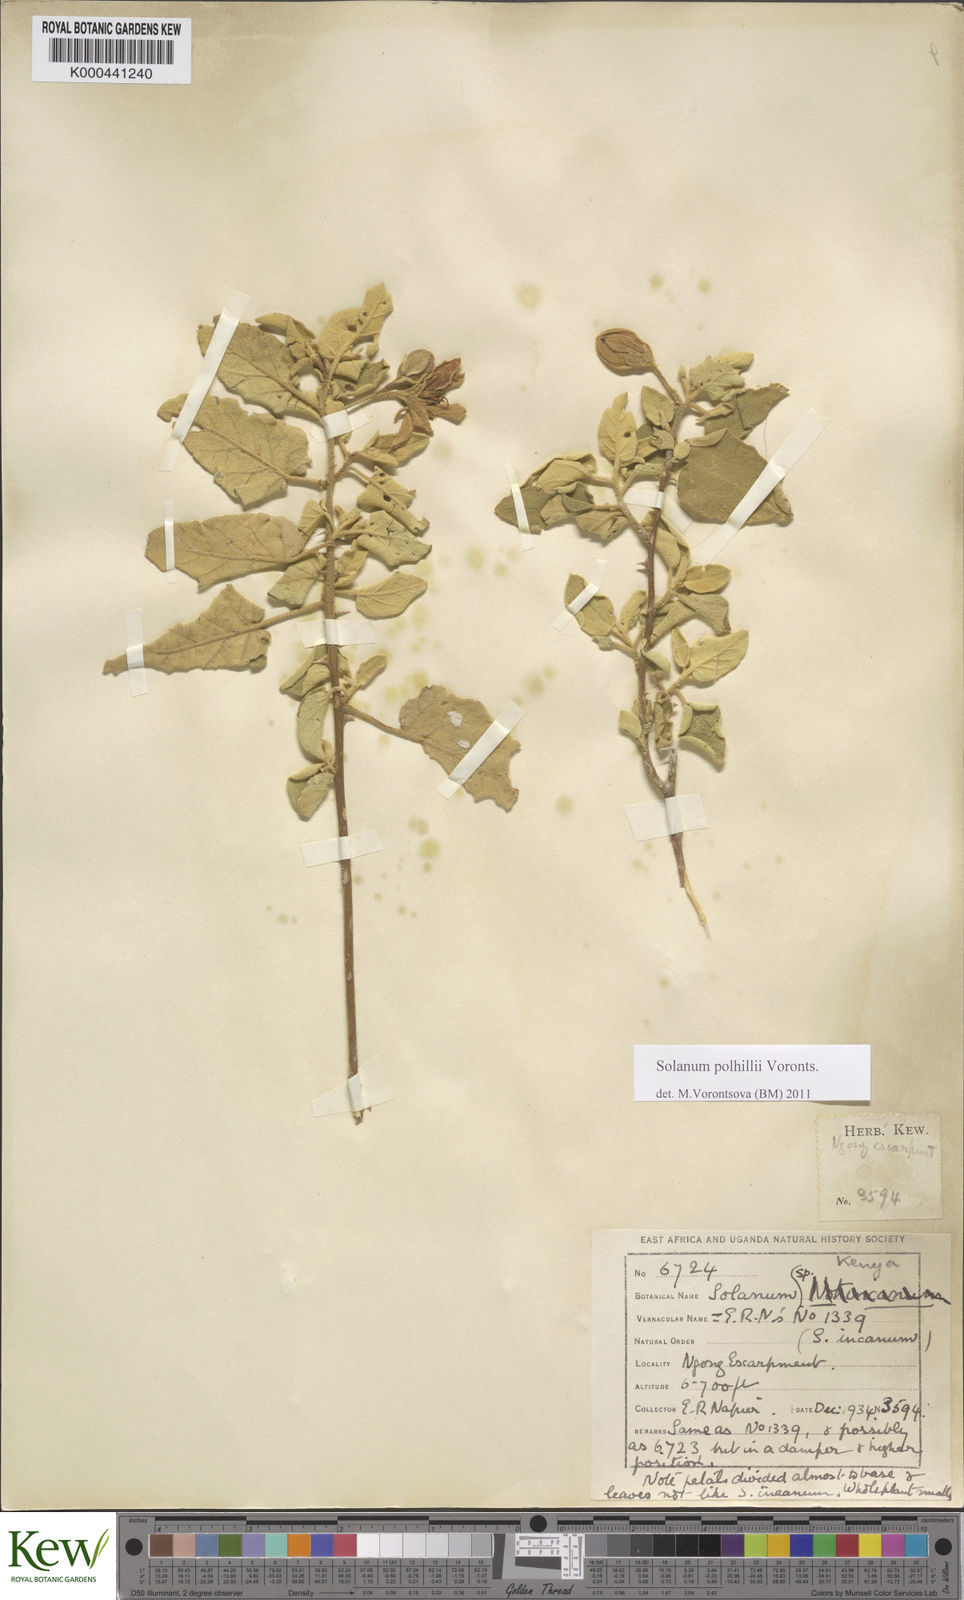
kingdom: Plantae
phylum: Tracheophyta
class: Magnoliopsida
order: Solanales
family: Solanaceae
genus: Solanum
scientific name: Solanum polhillii
